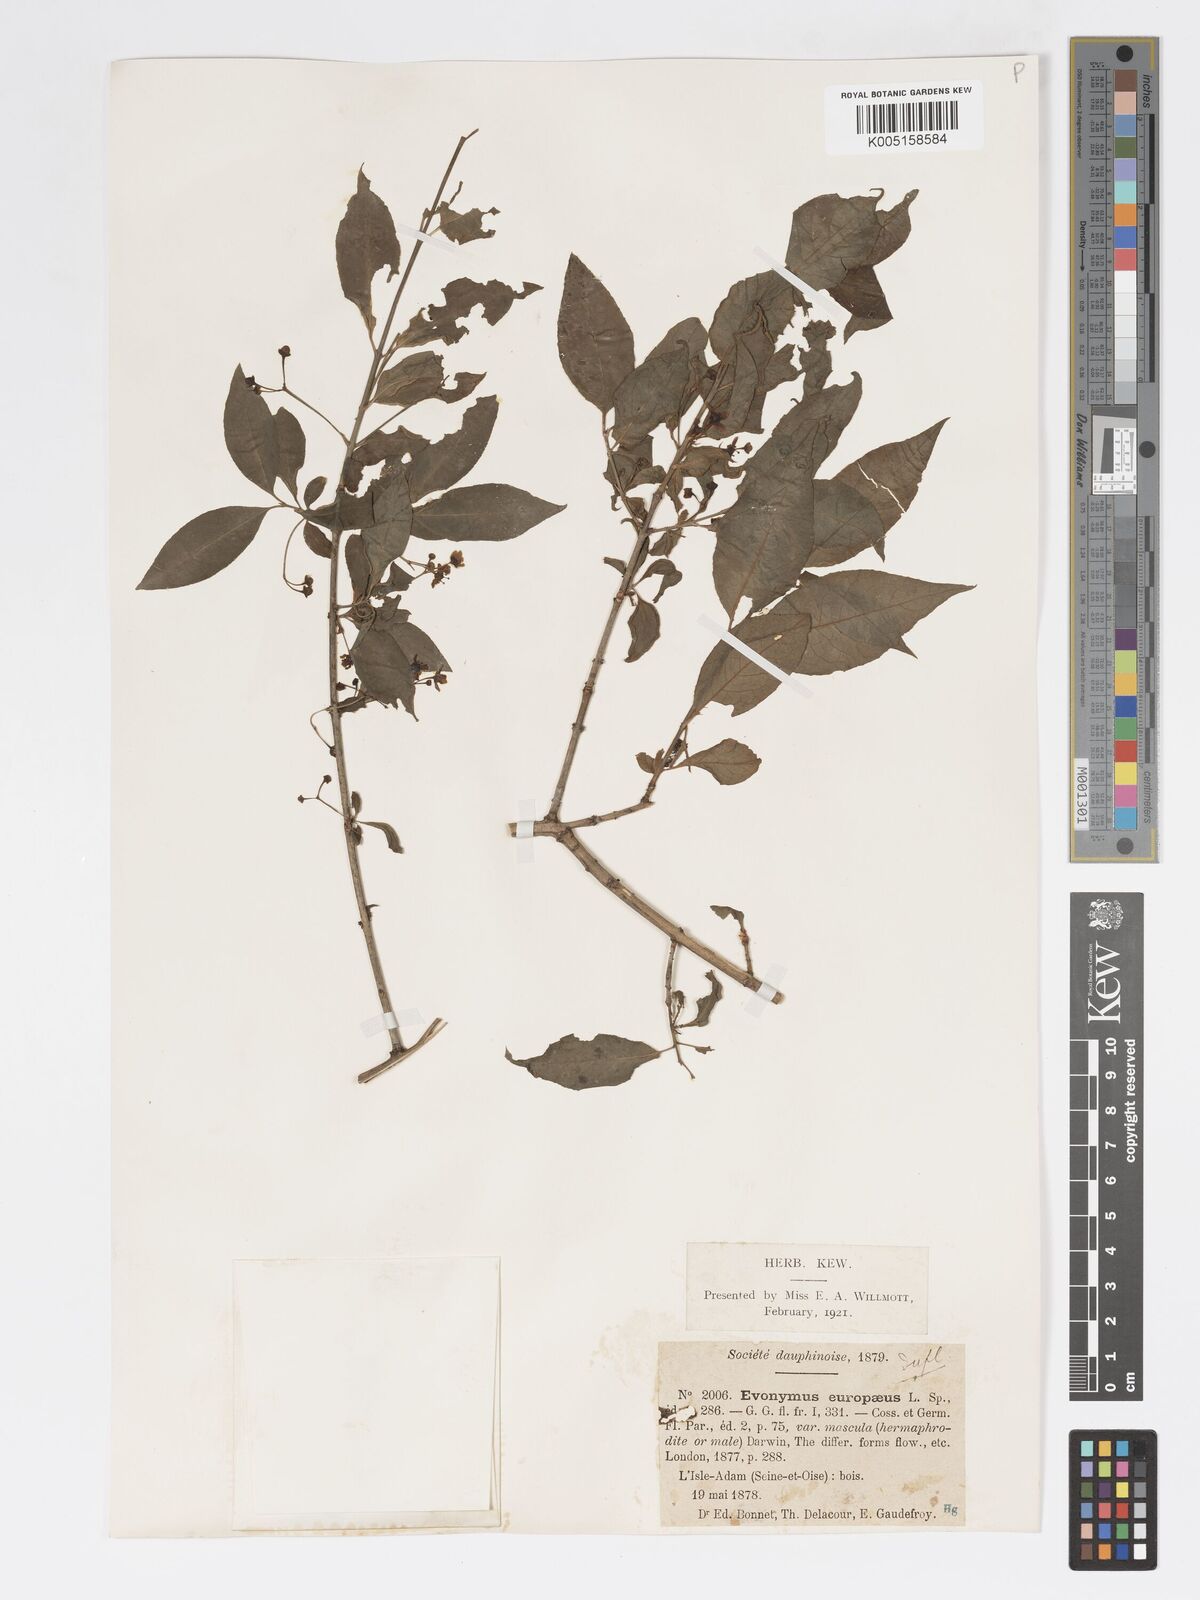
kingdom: Plantae
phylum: Tracheophyta
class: Magnoliopsida
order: Celastrales
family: Celastraceae
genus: Euonymus
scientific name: Euonymus europaeus
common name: Spindle
